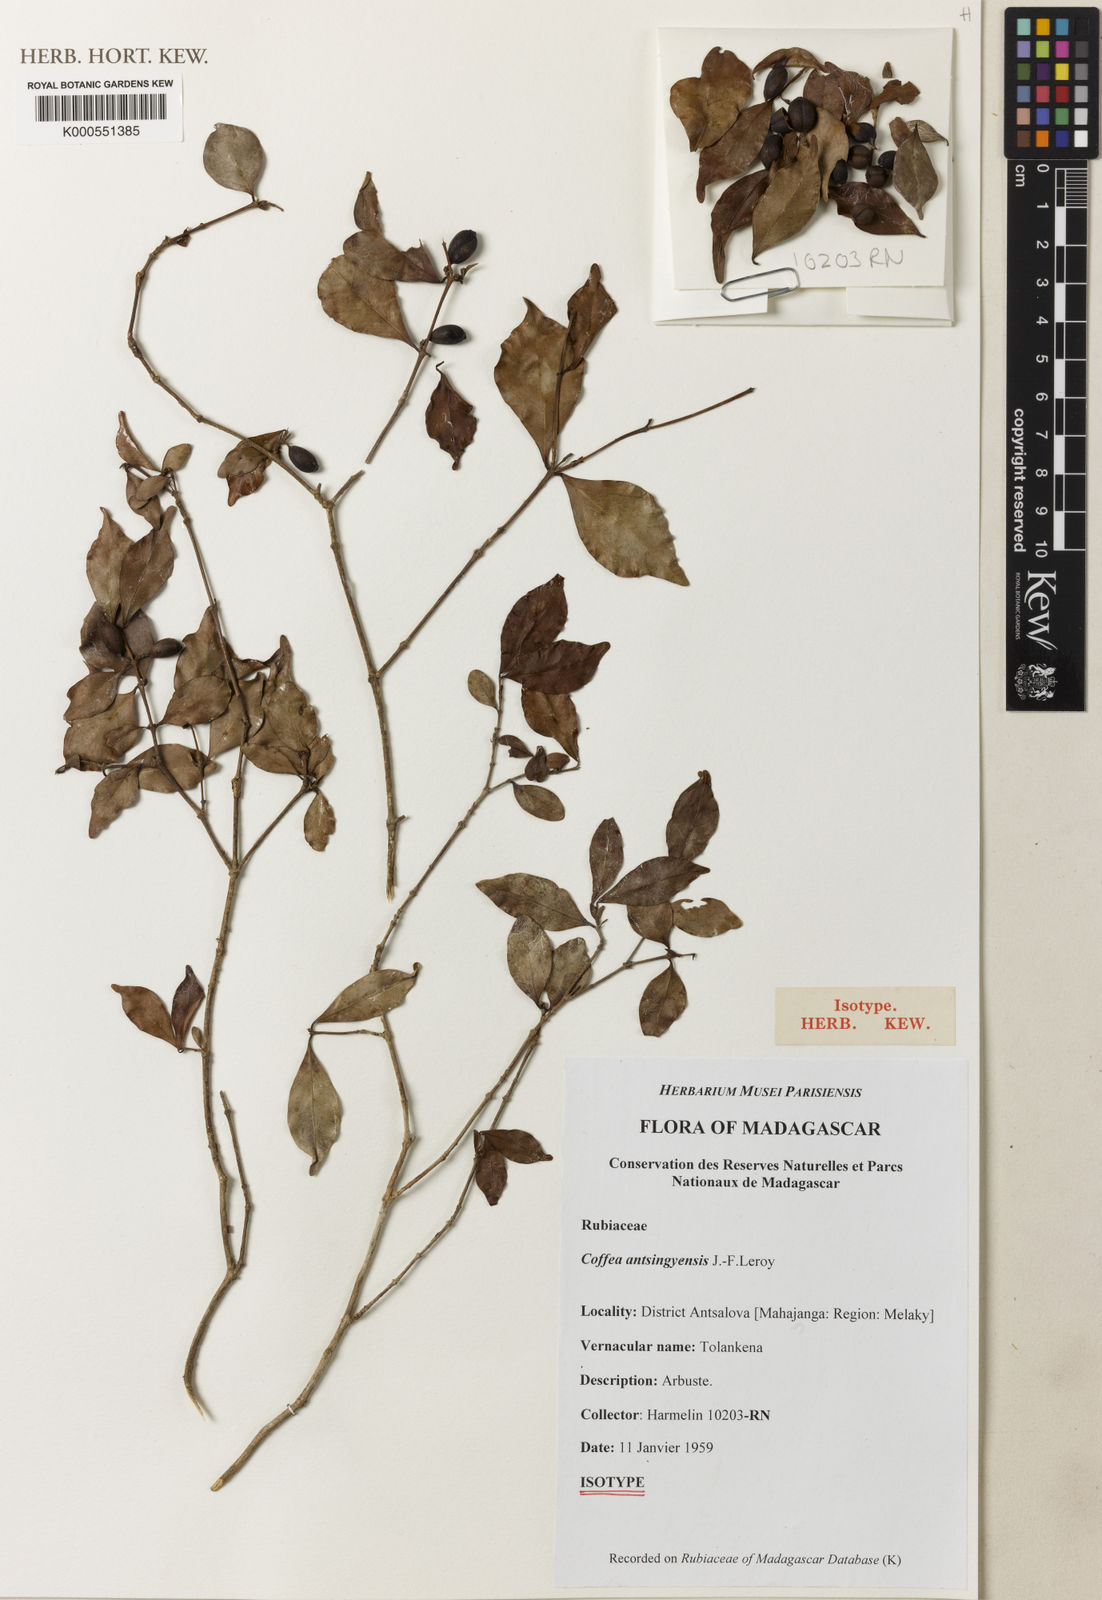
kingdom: Plantae
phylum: Tracheophyta
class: Magnoliopsida
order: Gentianales
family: Rubiaceae
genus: Coffea
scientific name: Coffea pervilleana
